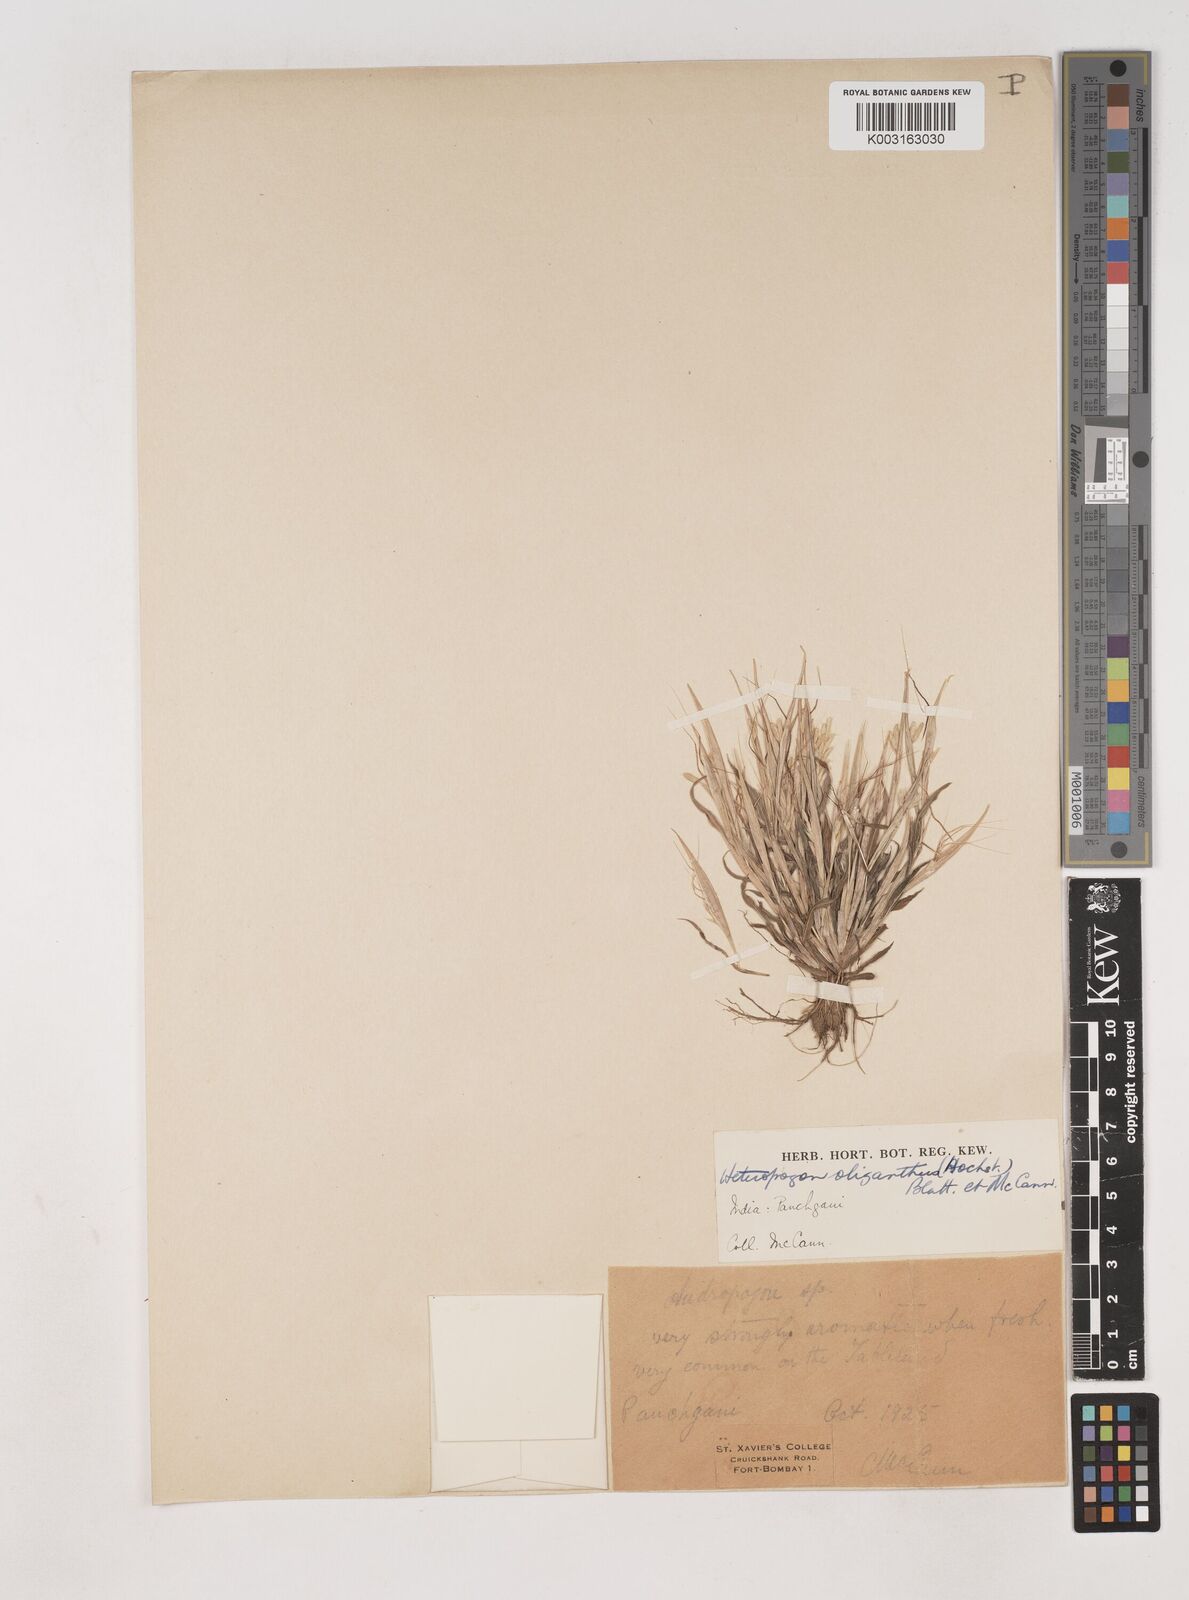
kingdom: Plantae
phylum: Tracheophyta
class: Liliopsida
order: Poales
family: Poaceae
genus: Euclasta
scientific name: Euclasta oligantha
